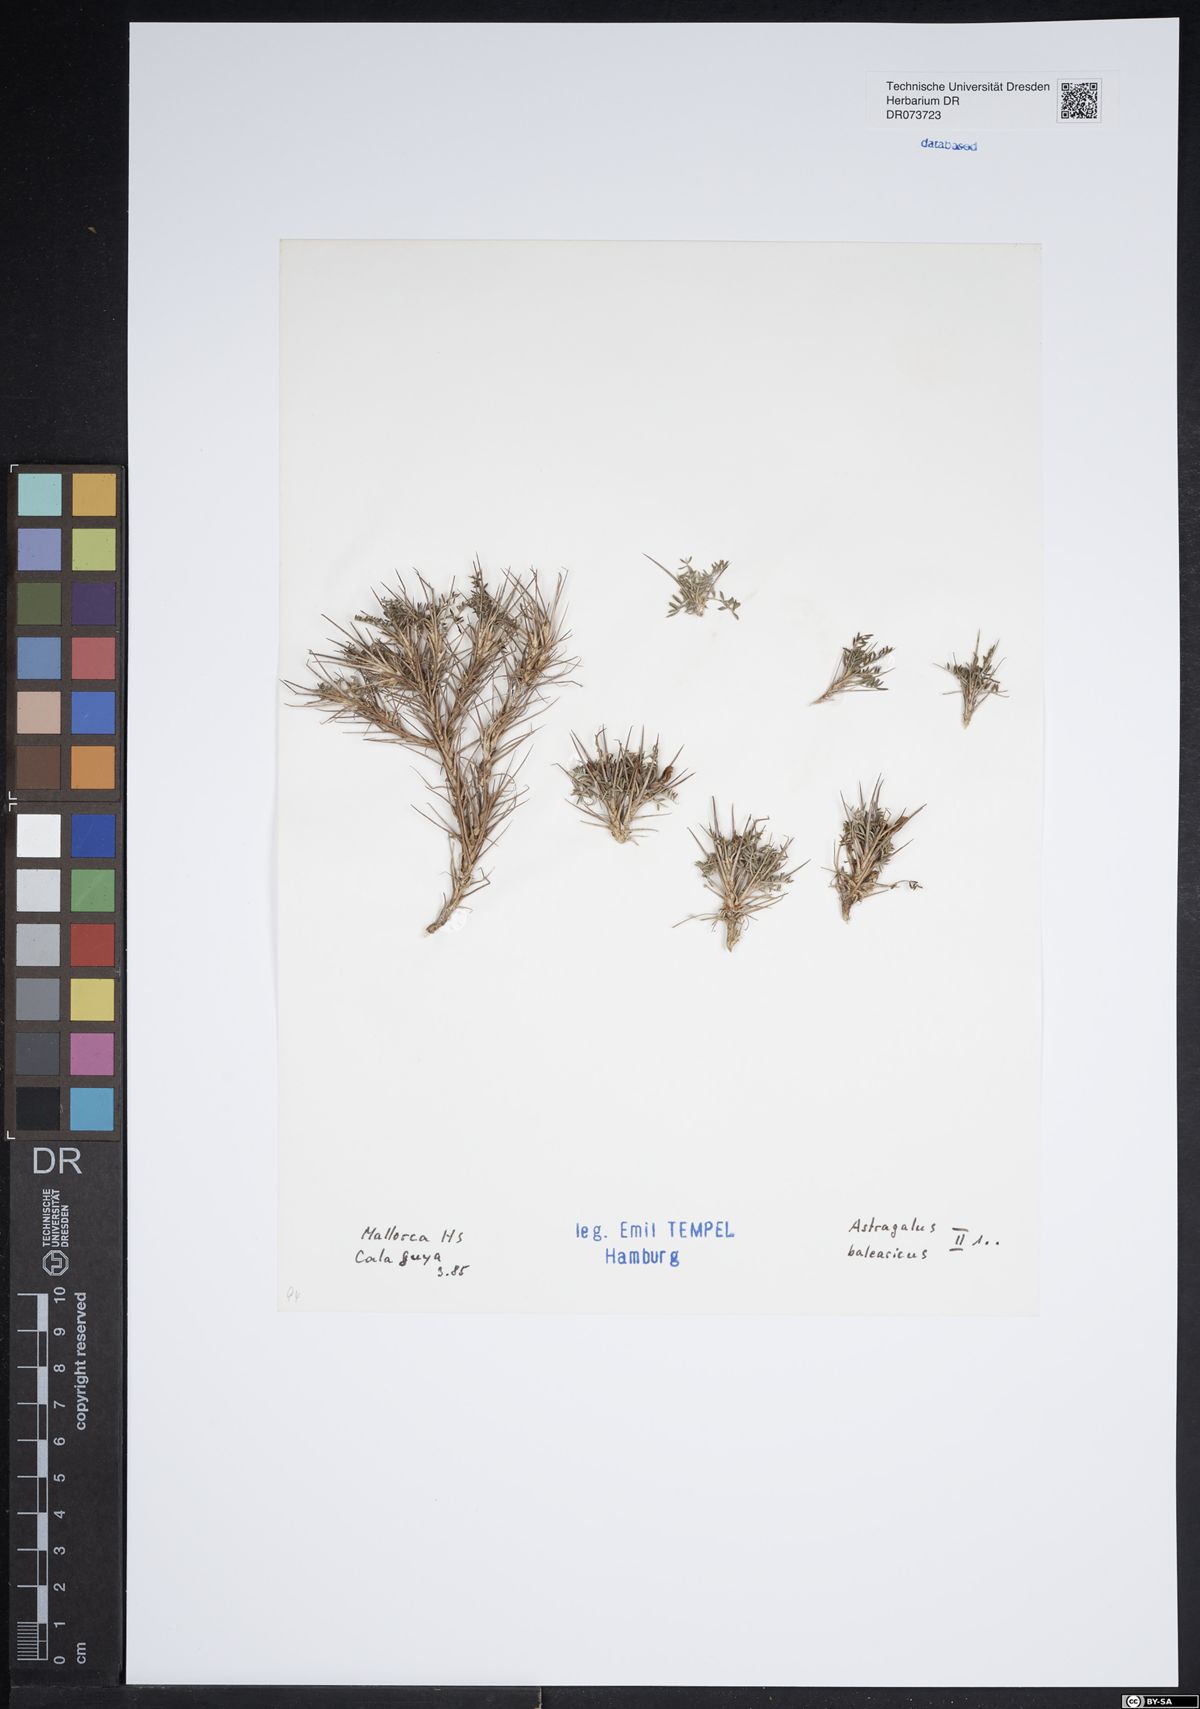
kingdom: Plantae
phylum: Tracheophyta
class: Magnoliopsida
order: Fabales
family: Fabaceae
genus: Astragalus
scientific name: Astragalus balearicus
